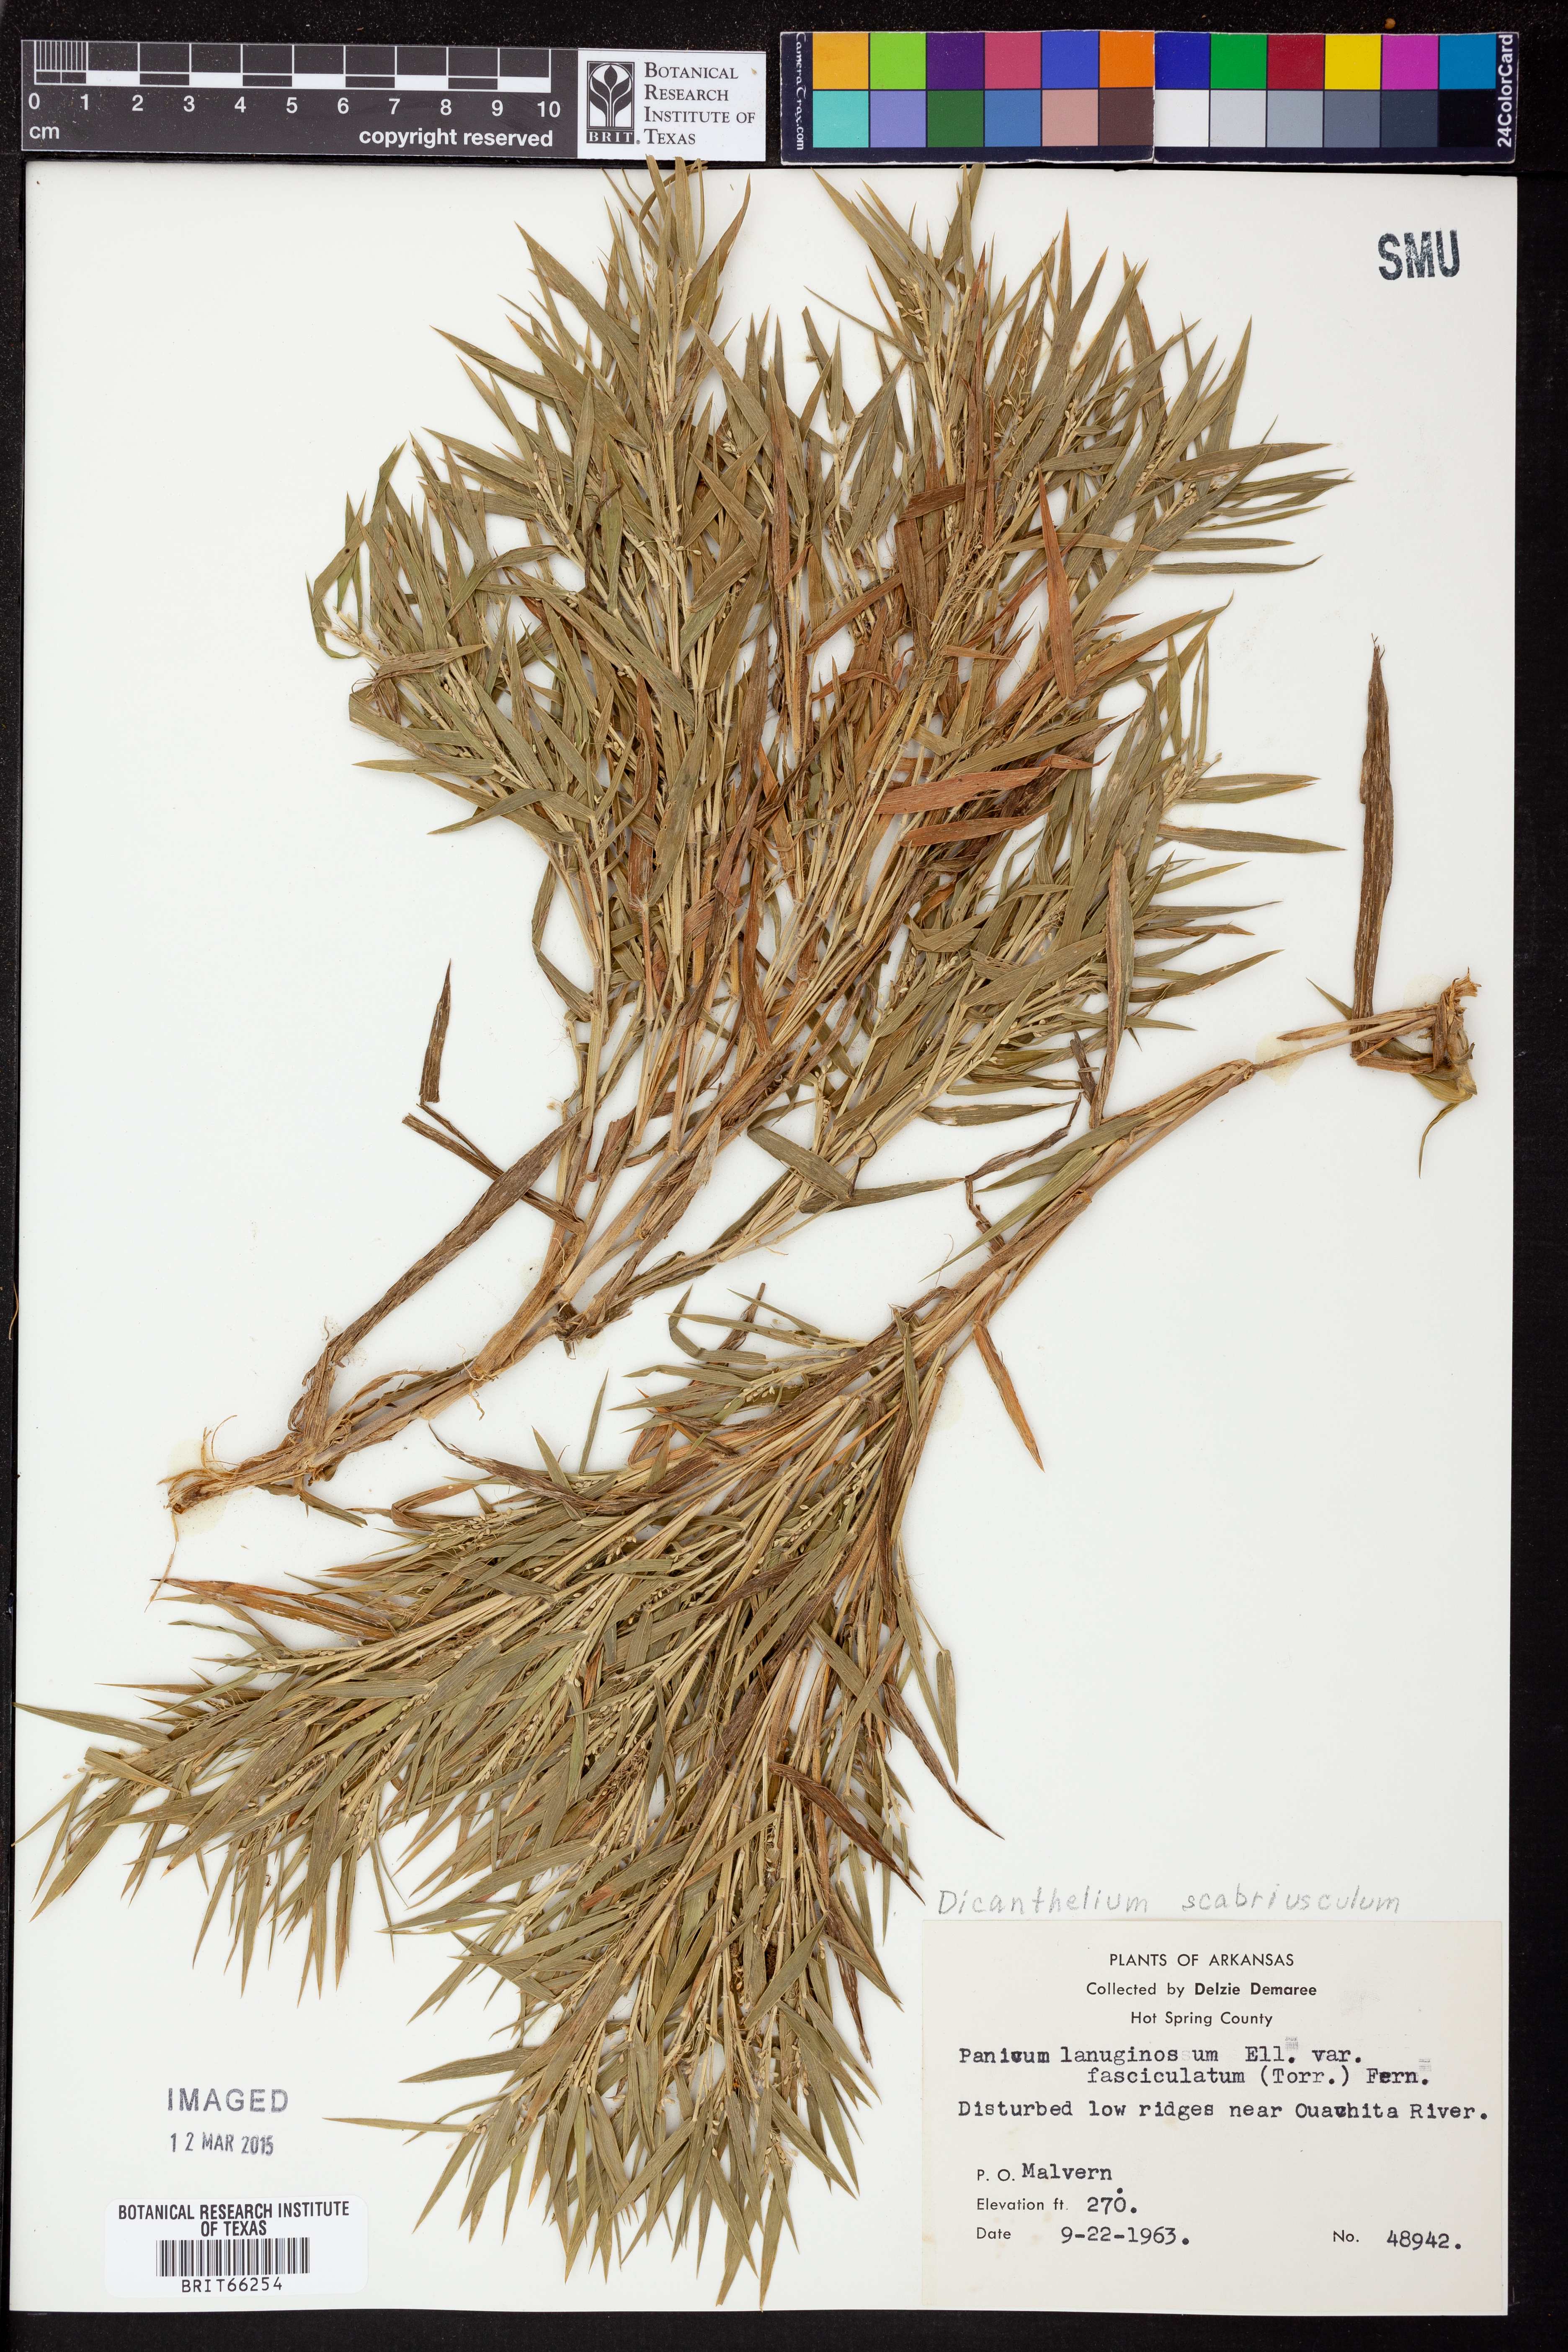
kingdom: Plantae
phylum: Tracheophyta
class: Liliopsida
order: Poales
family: Poaceae
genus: Dichanthelium
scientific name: Dichanthelium lanuginosum
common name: Woolly panicgrass
